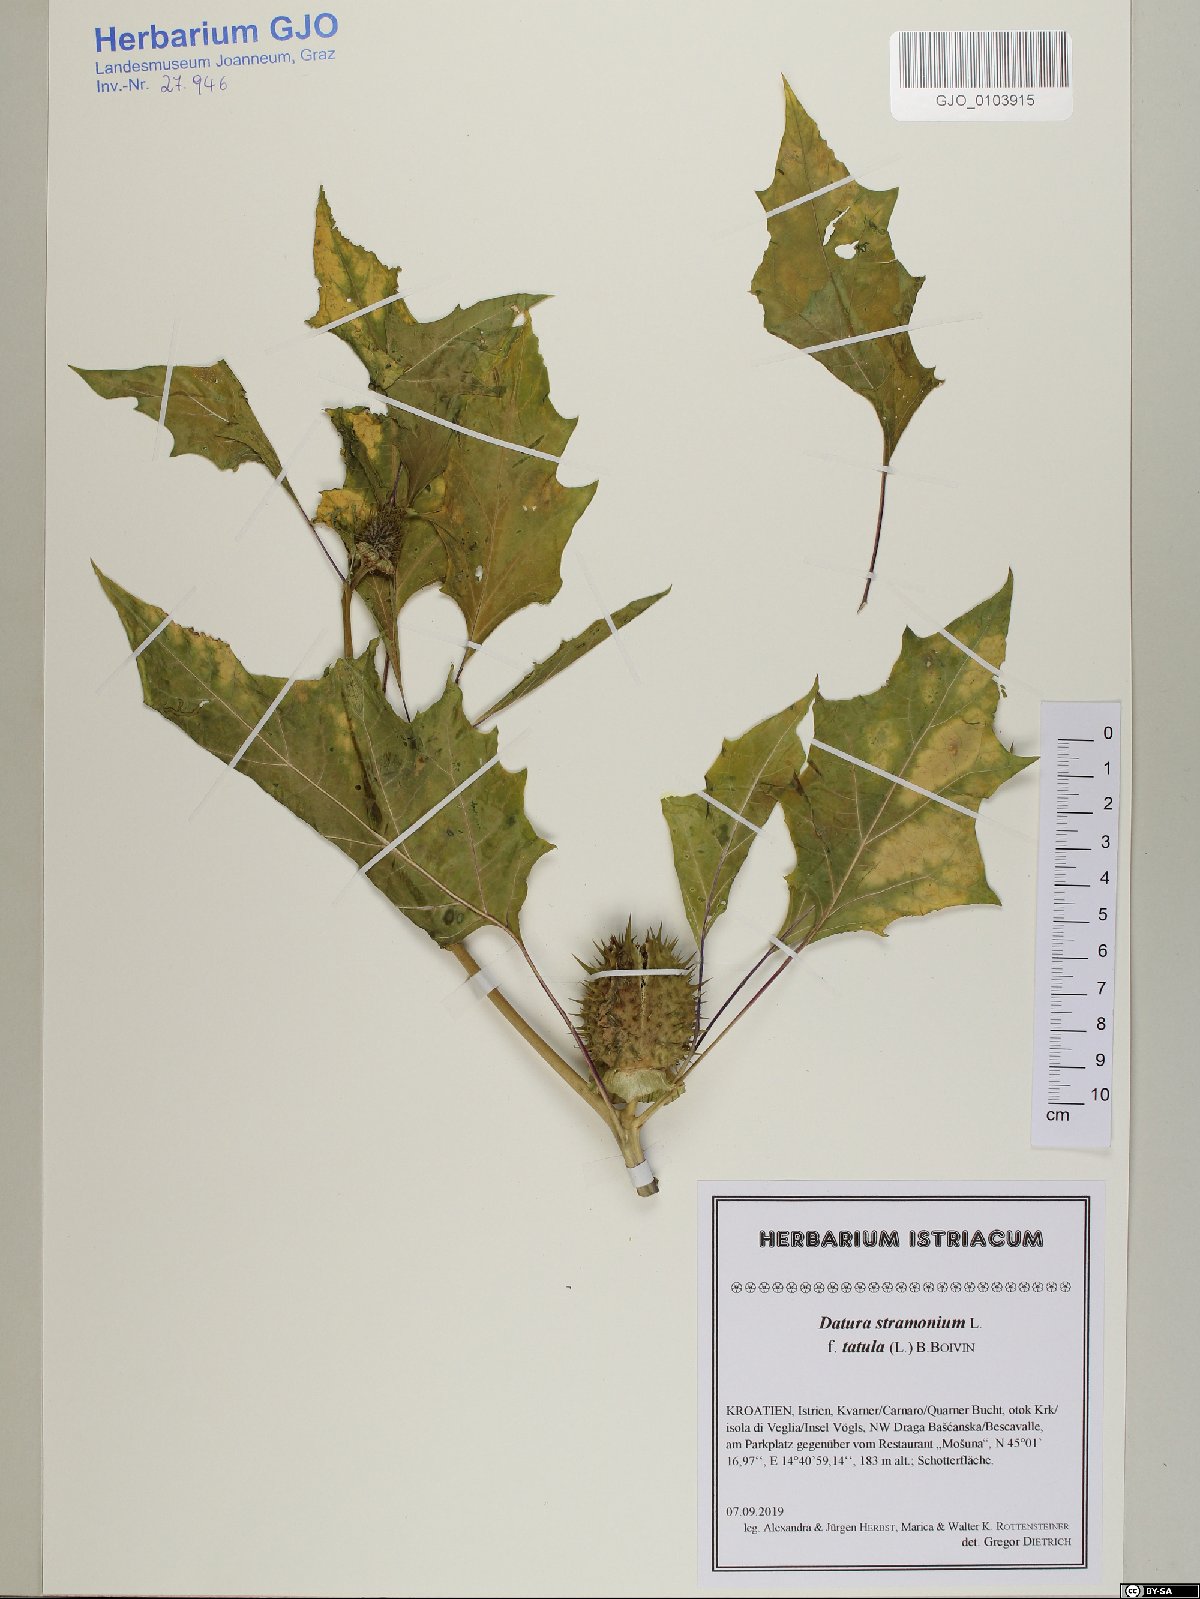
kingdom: Plantae
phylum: Tracheophyta
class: Magnoliopsida
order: Solanales
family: Solanaceae
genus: Datura
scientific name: Datura stramonium
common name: Thorn-apple
